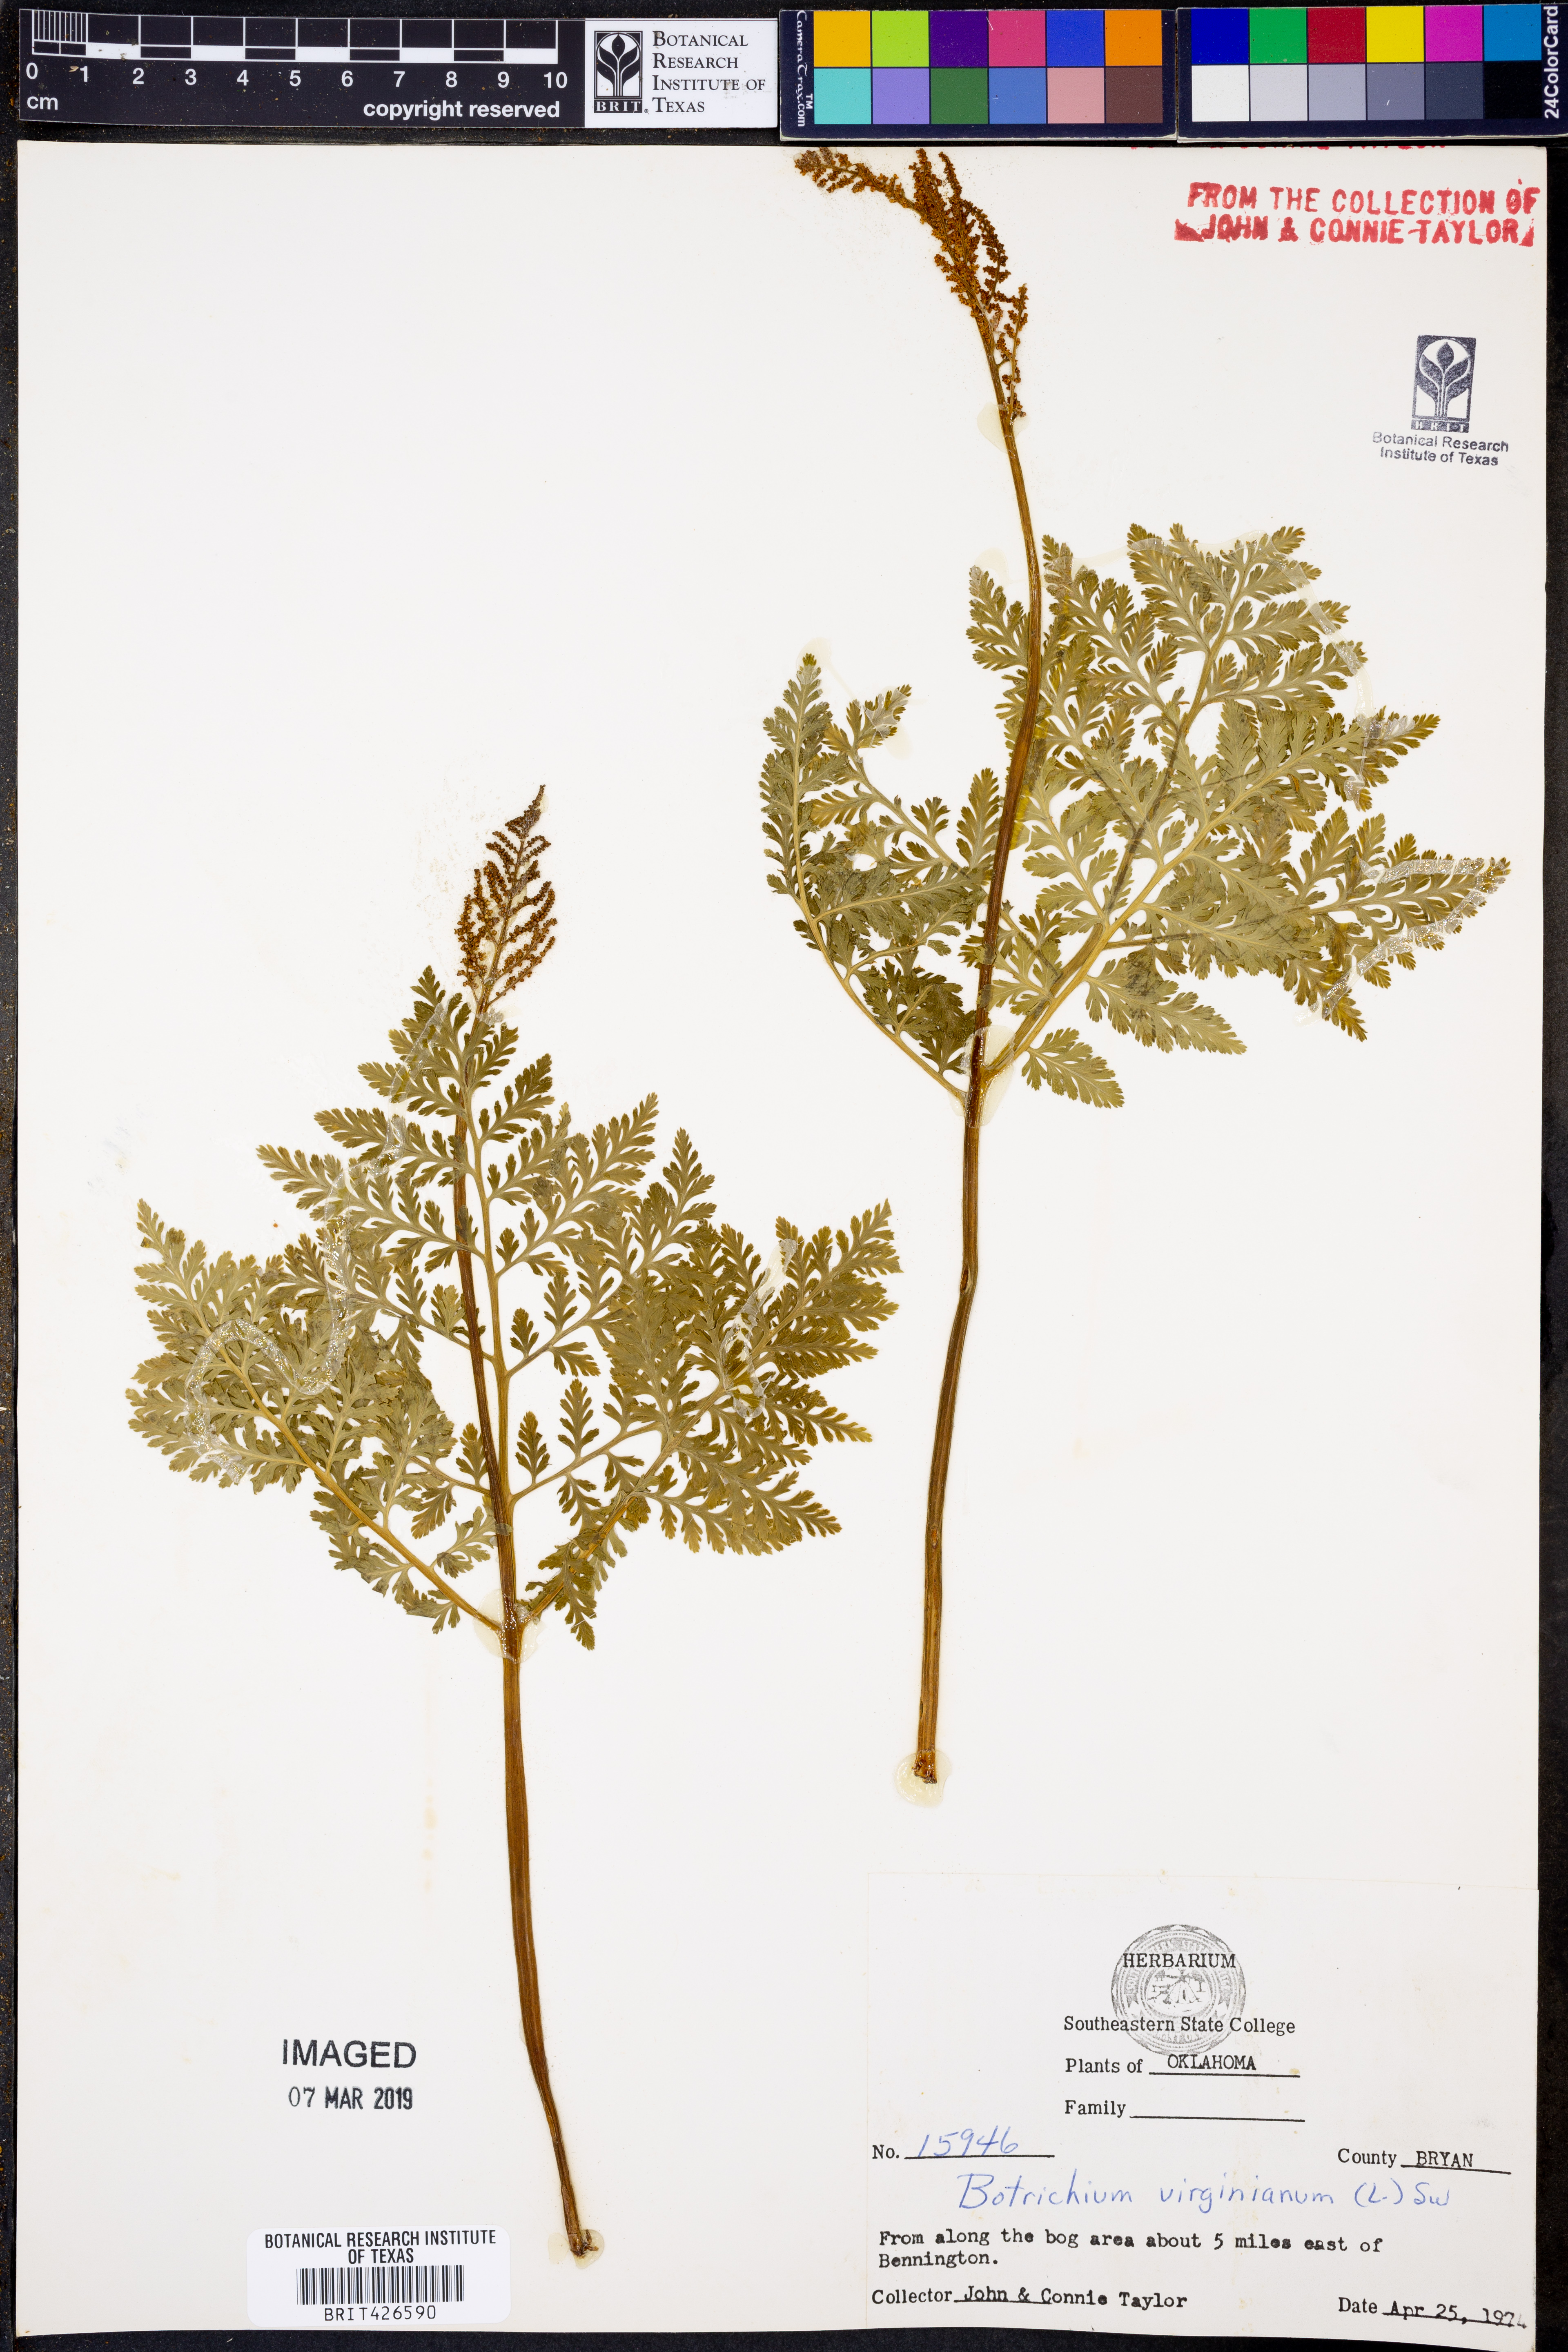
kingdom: Plantae
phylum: Tracheophyta
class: Polypodiopsida
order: Ophioglossales
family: Ophioglossaceae
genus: Botrypus
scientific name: Botrypus virginianus
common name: Common grapefern
